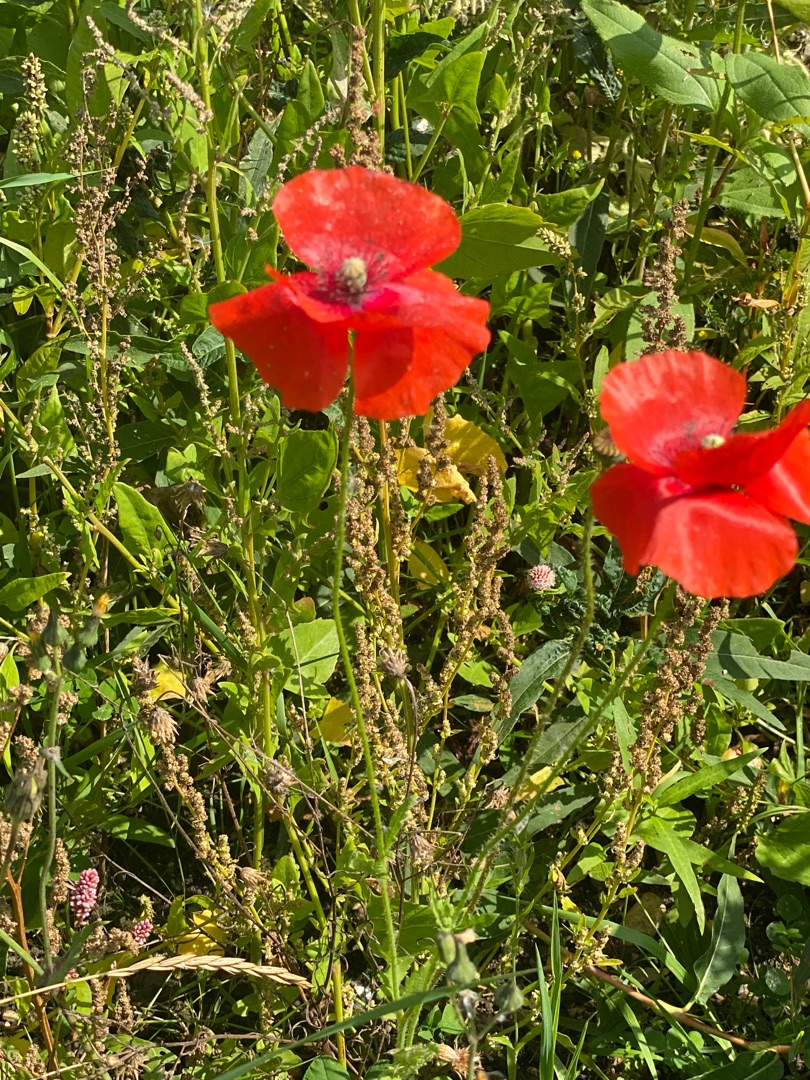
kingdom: Plantae
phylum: Tracheophyta
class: Magnoliopsida
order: Ranunculales
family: Papaveraceae
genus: Papaver
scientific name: Papaver rhoeas
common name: Korn-valmue
